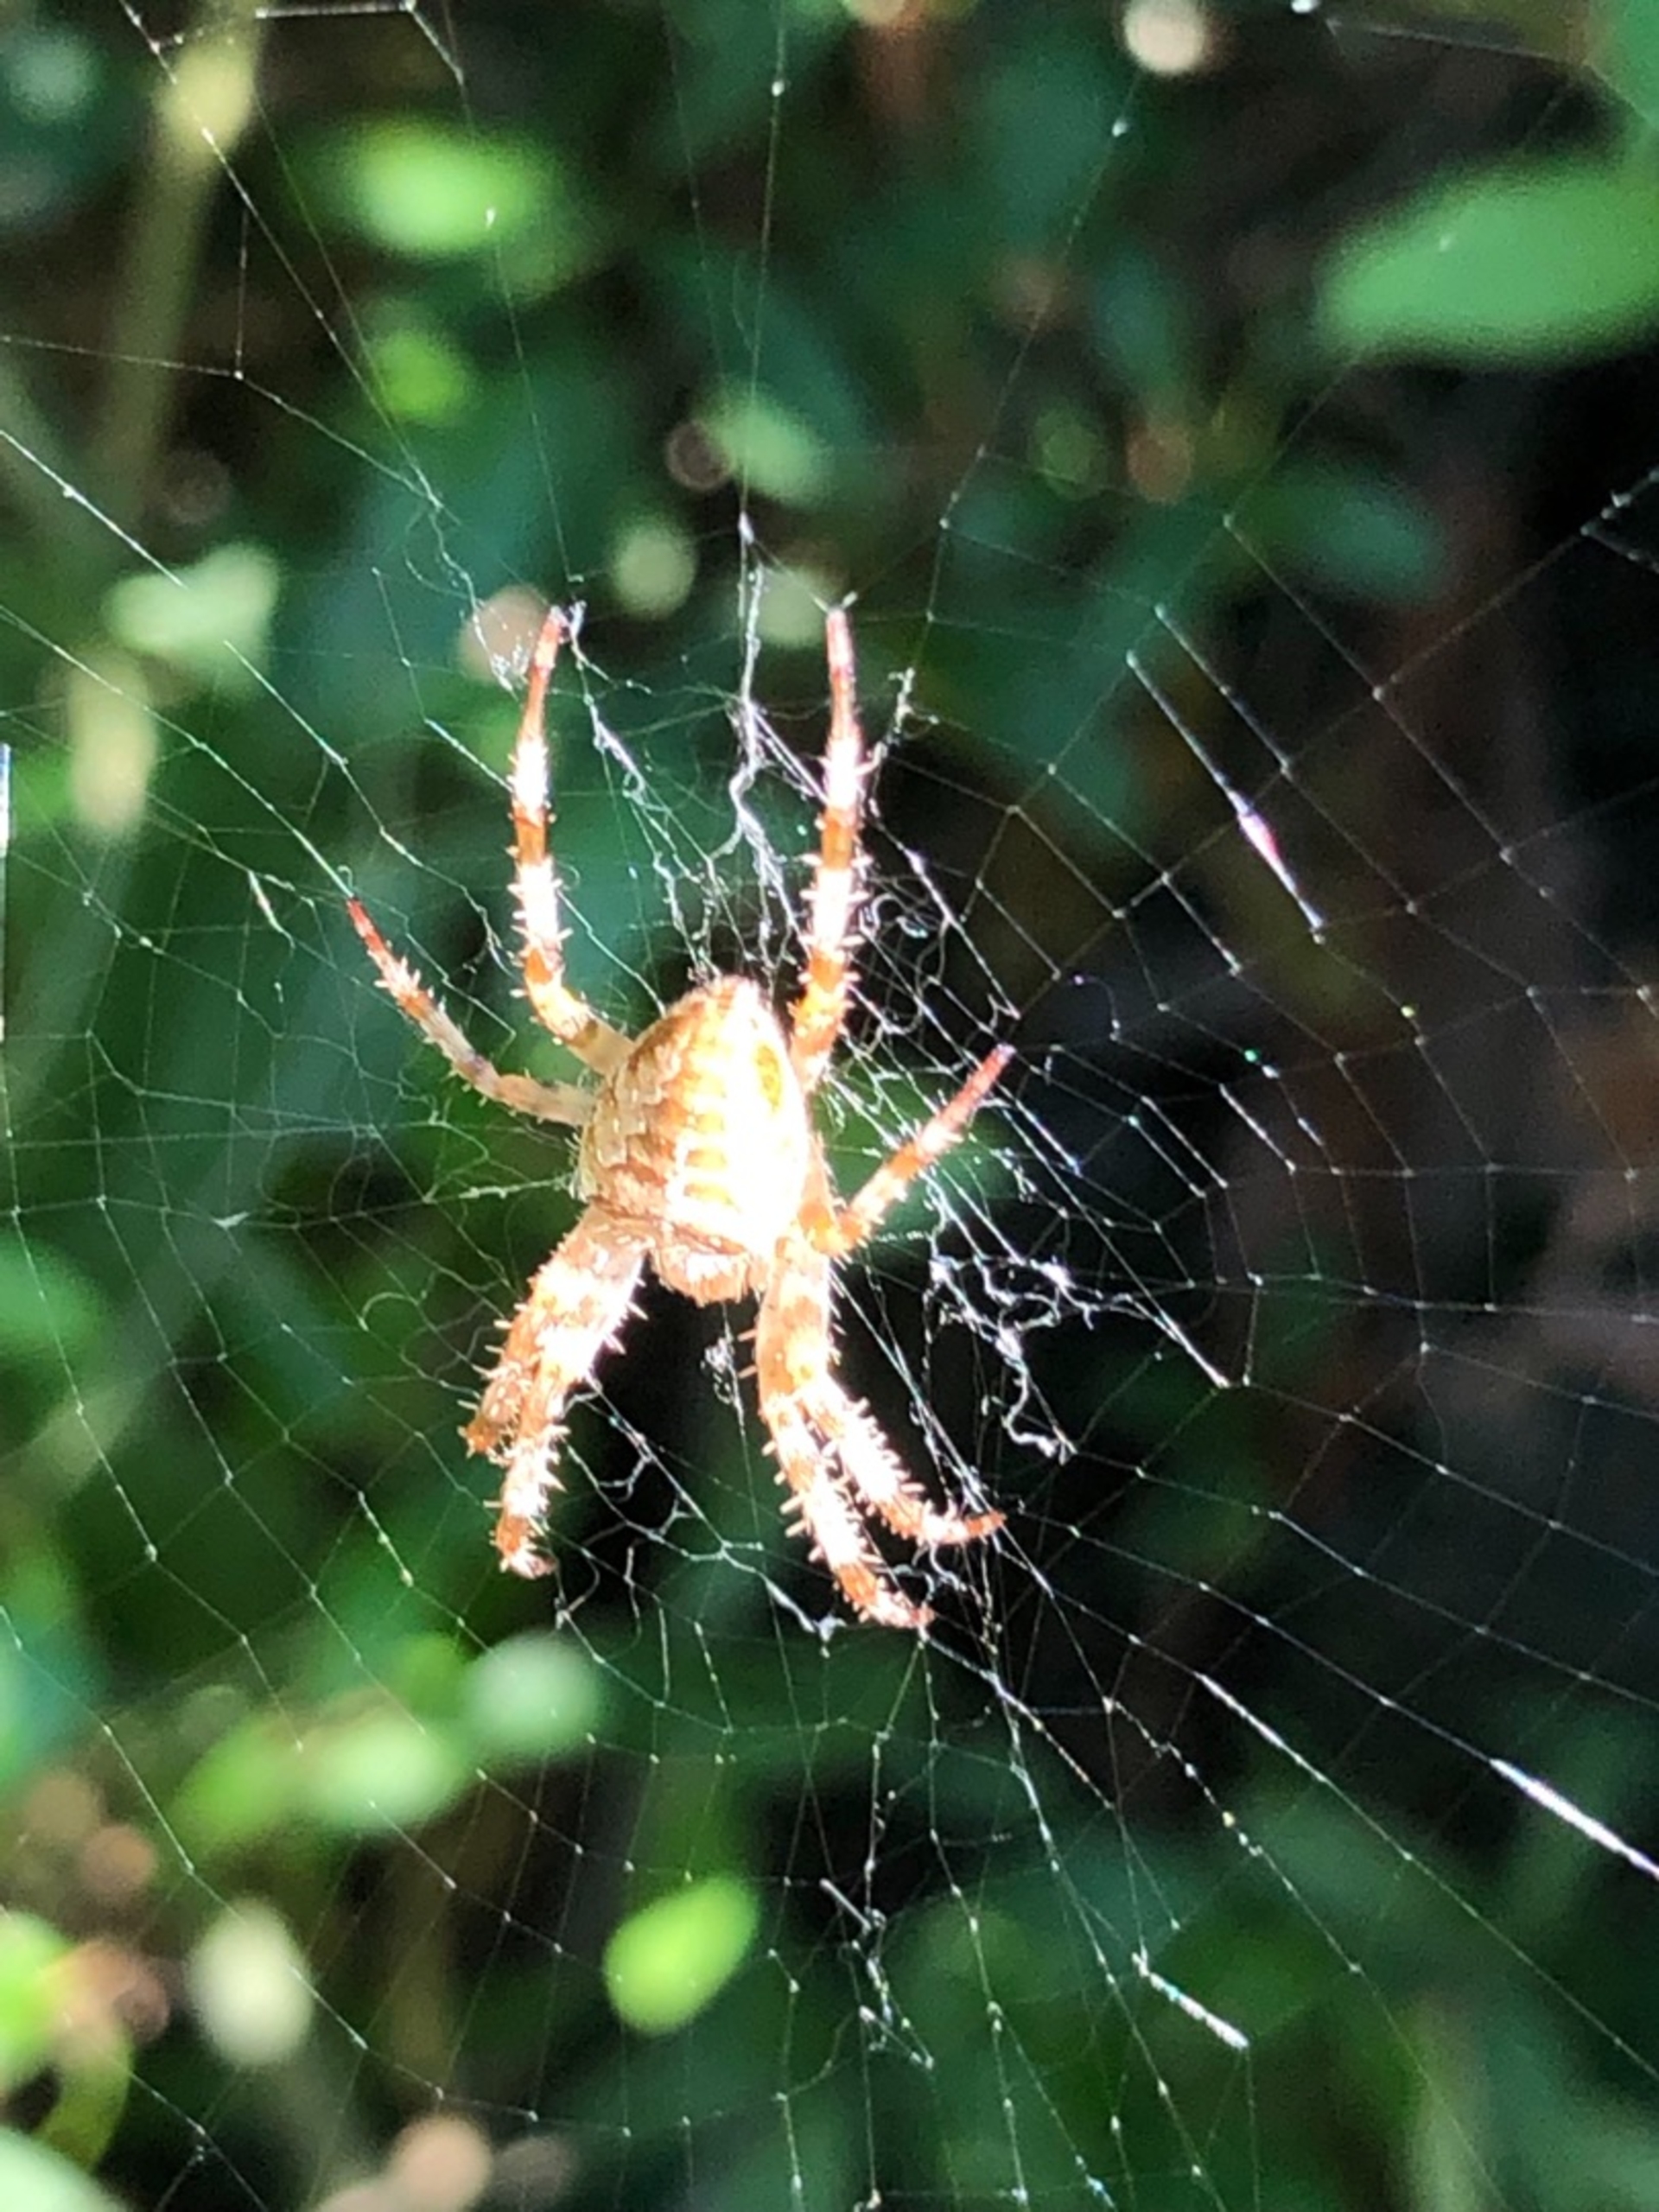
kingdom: Animalia
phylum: Arthropoda
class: Arachnida
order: Araneae
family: Araneidae
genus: Araneus
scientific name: Araneus diadematus
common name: Korsedderkop
